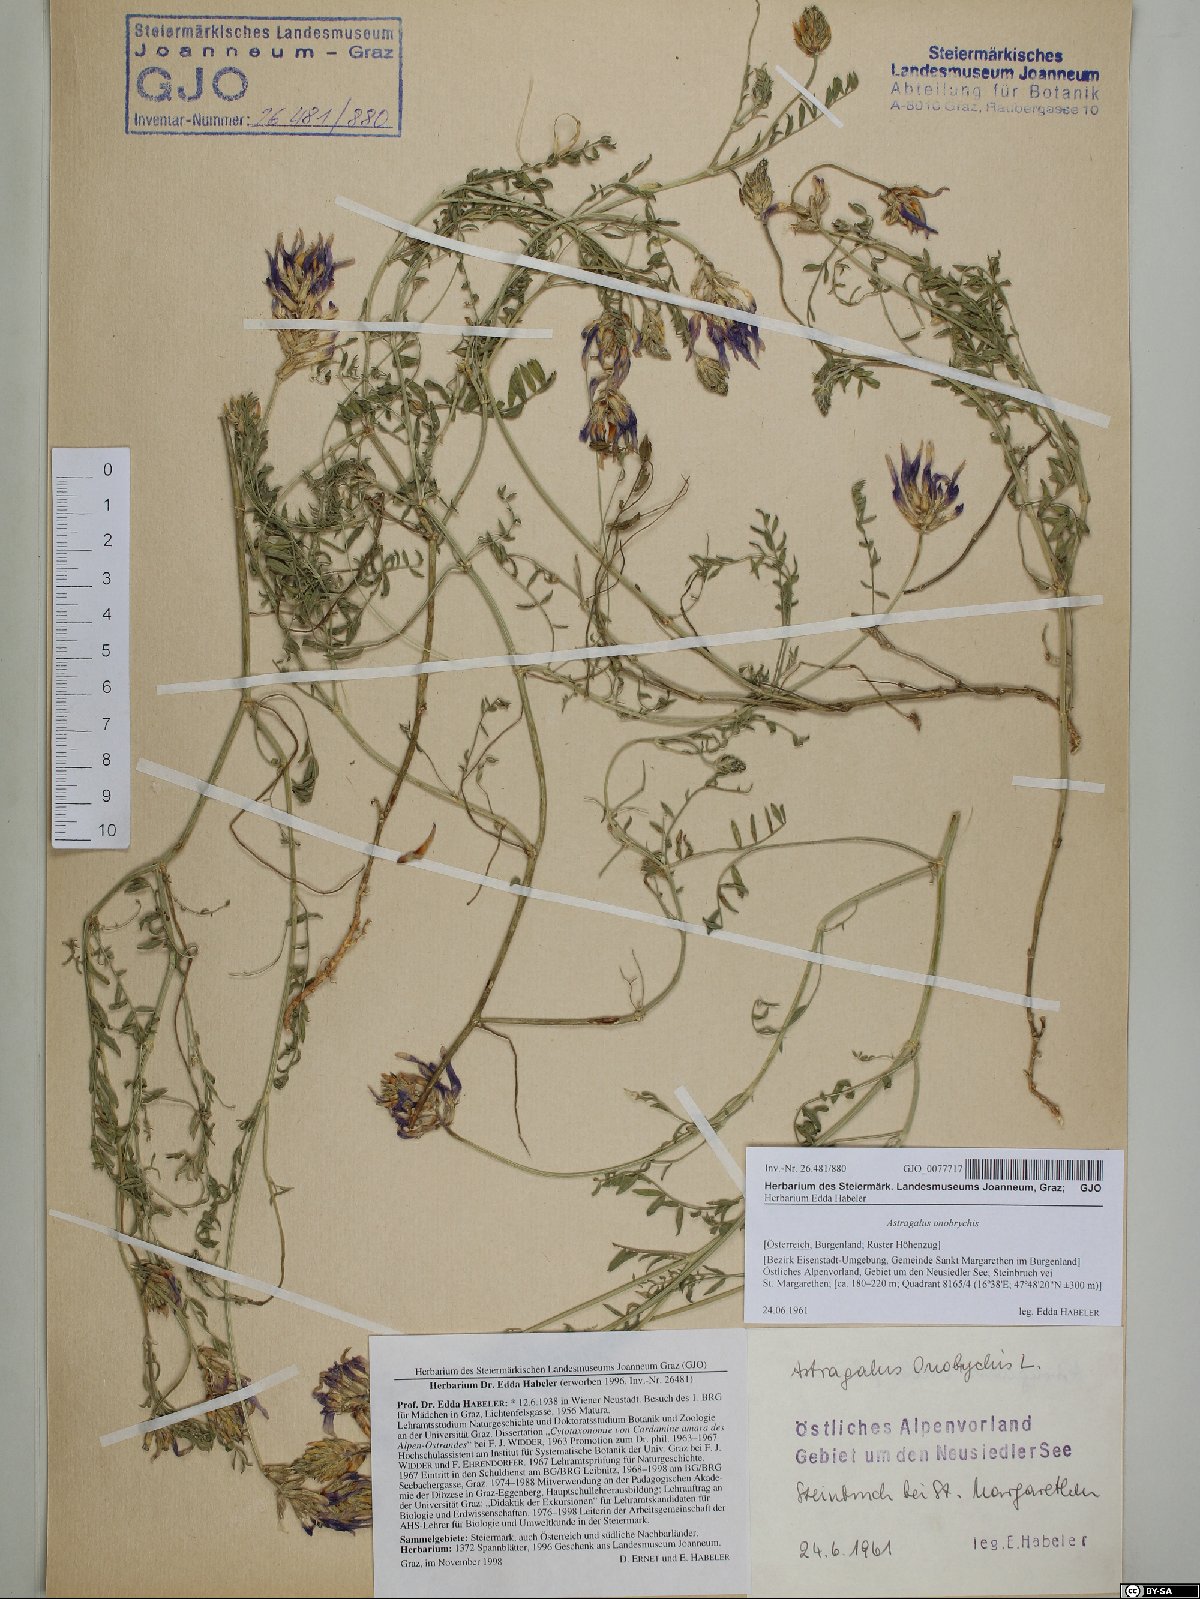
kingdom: Plantae
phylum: Tracheophyta
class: Magnoliopsida
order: Fabales
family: Fabaceae
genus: Astragalus
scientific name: Astragalus onobrychis
